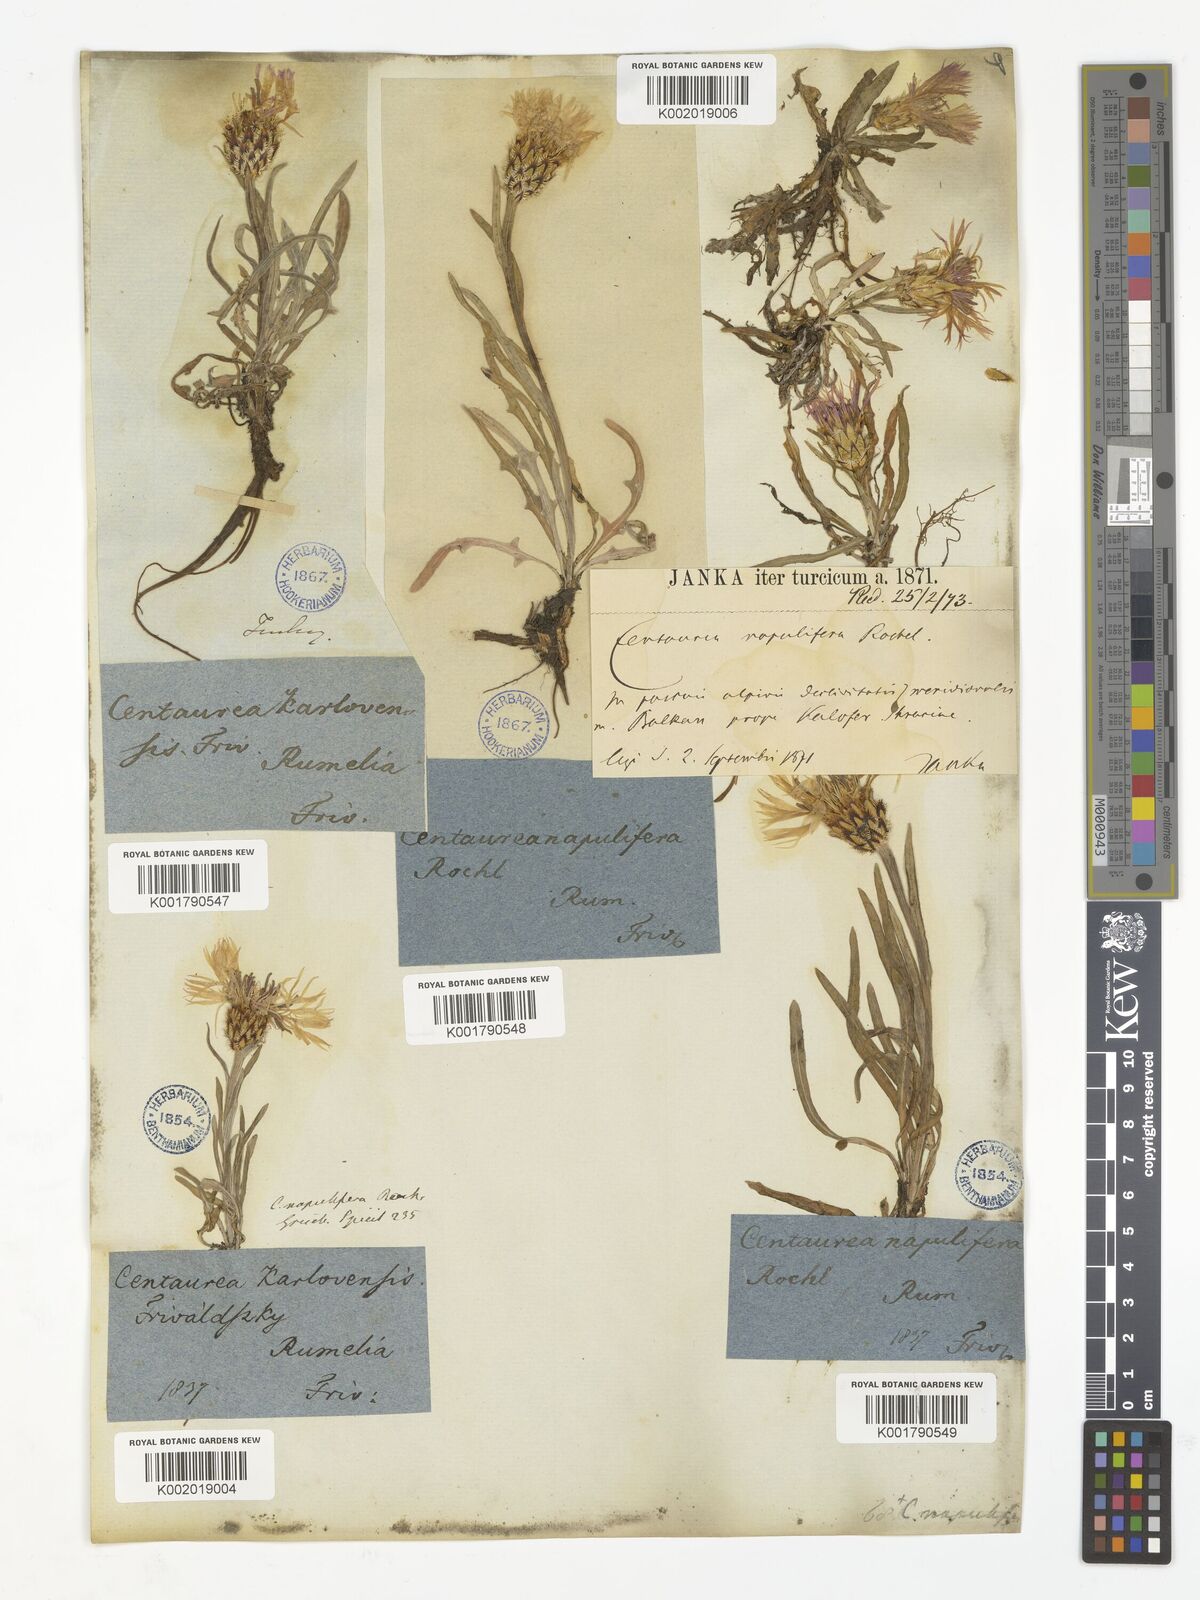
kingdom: Plantae
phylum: Tracheophyta
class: Magnoliopsida
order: Asterales
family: Asteraceae
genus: Centaurea
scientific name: Centaurea napulifera
